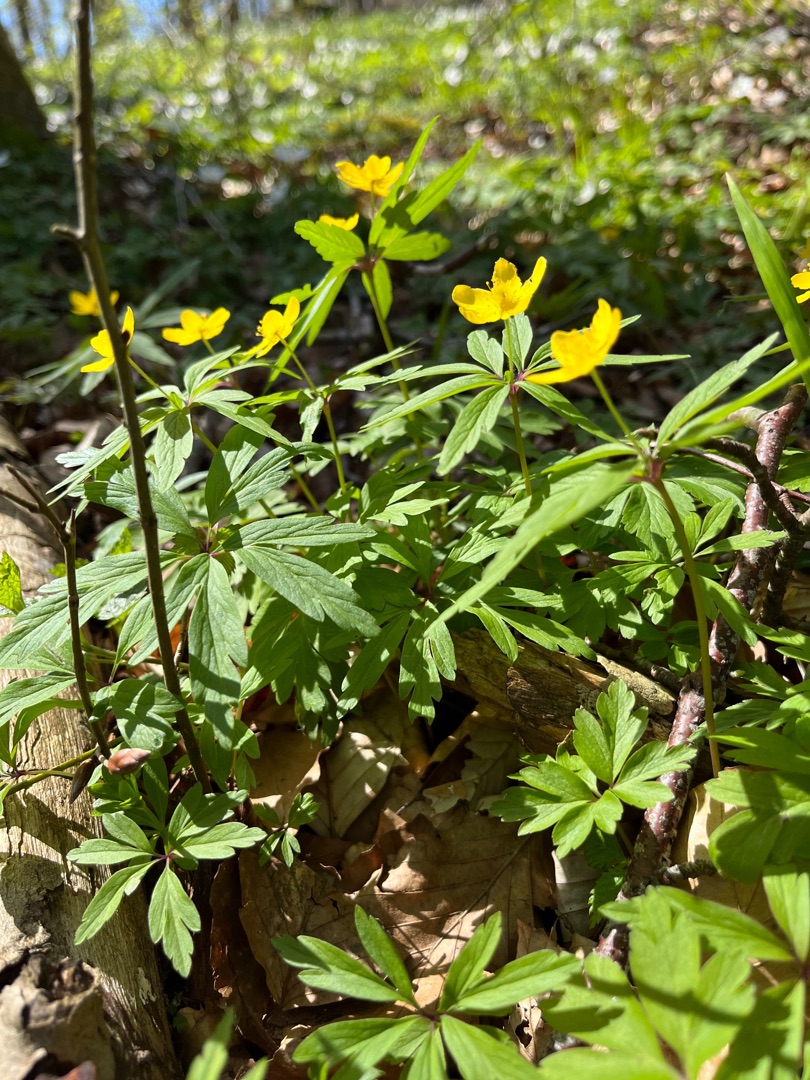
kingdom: Plantae
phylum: Tracheophyta
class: Magnoliopsida
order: Ranunculales
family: Ranunculaceae
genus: Anemone
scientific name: Anemone ranunculoides
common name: Gul anemone
